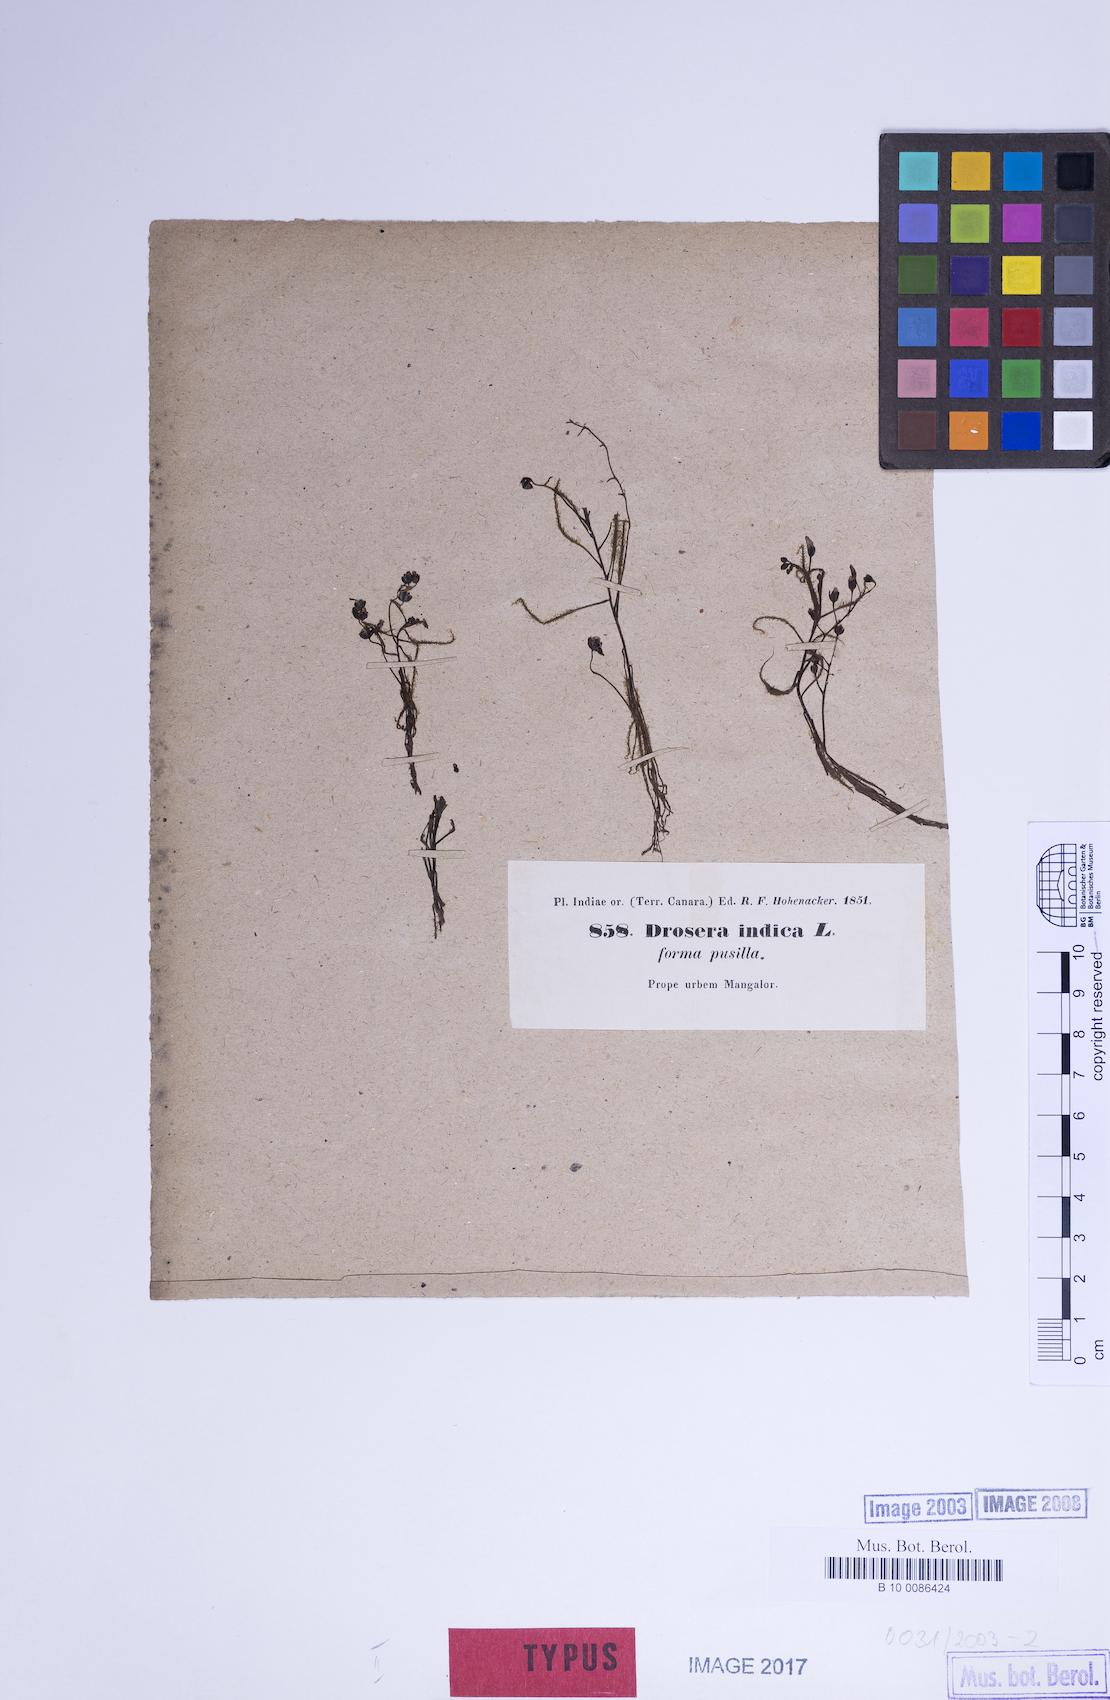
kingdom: Plantae
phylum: Tracheophyta
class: Magnoliopsida
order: Caryophyllales
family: Droseraceae
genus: Drosera
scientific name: Drosera indica
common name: Indian sundew
